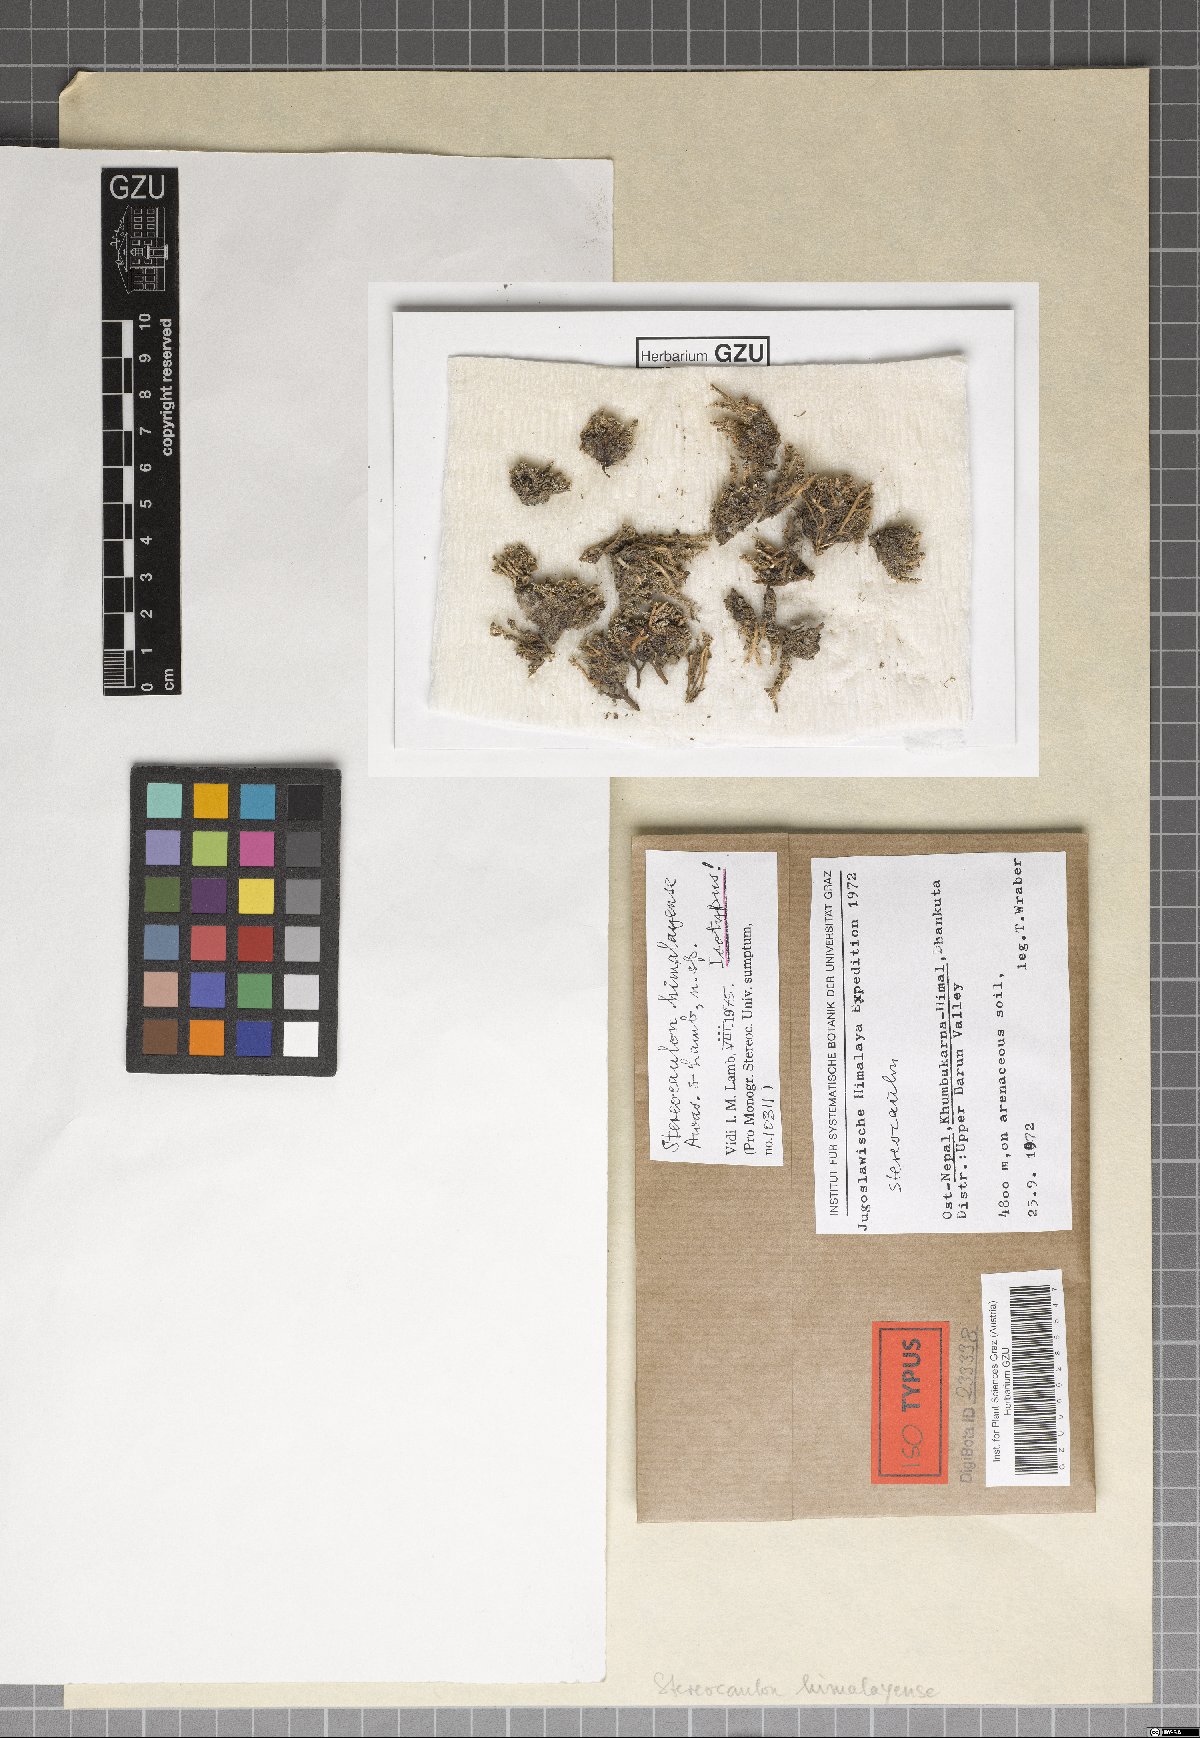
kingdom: Fungi
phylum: Ascomycota
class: Lecanoromycetes
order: Lecanorales
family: Stereocaulaceae
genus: Stereocaulon
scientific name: Stereocaulon
